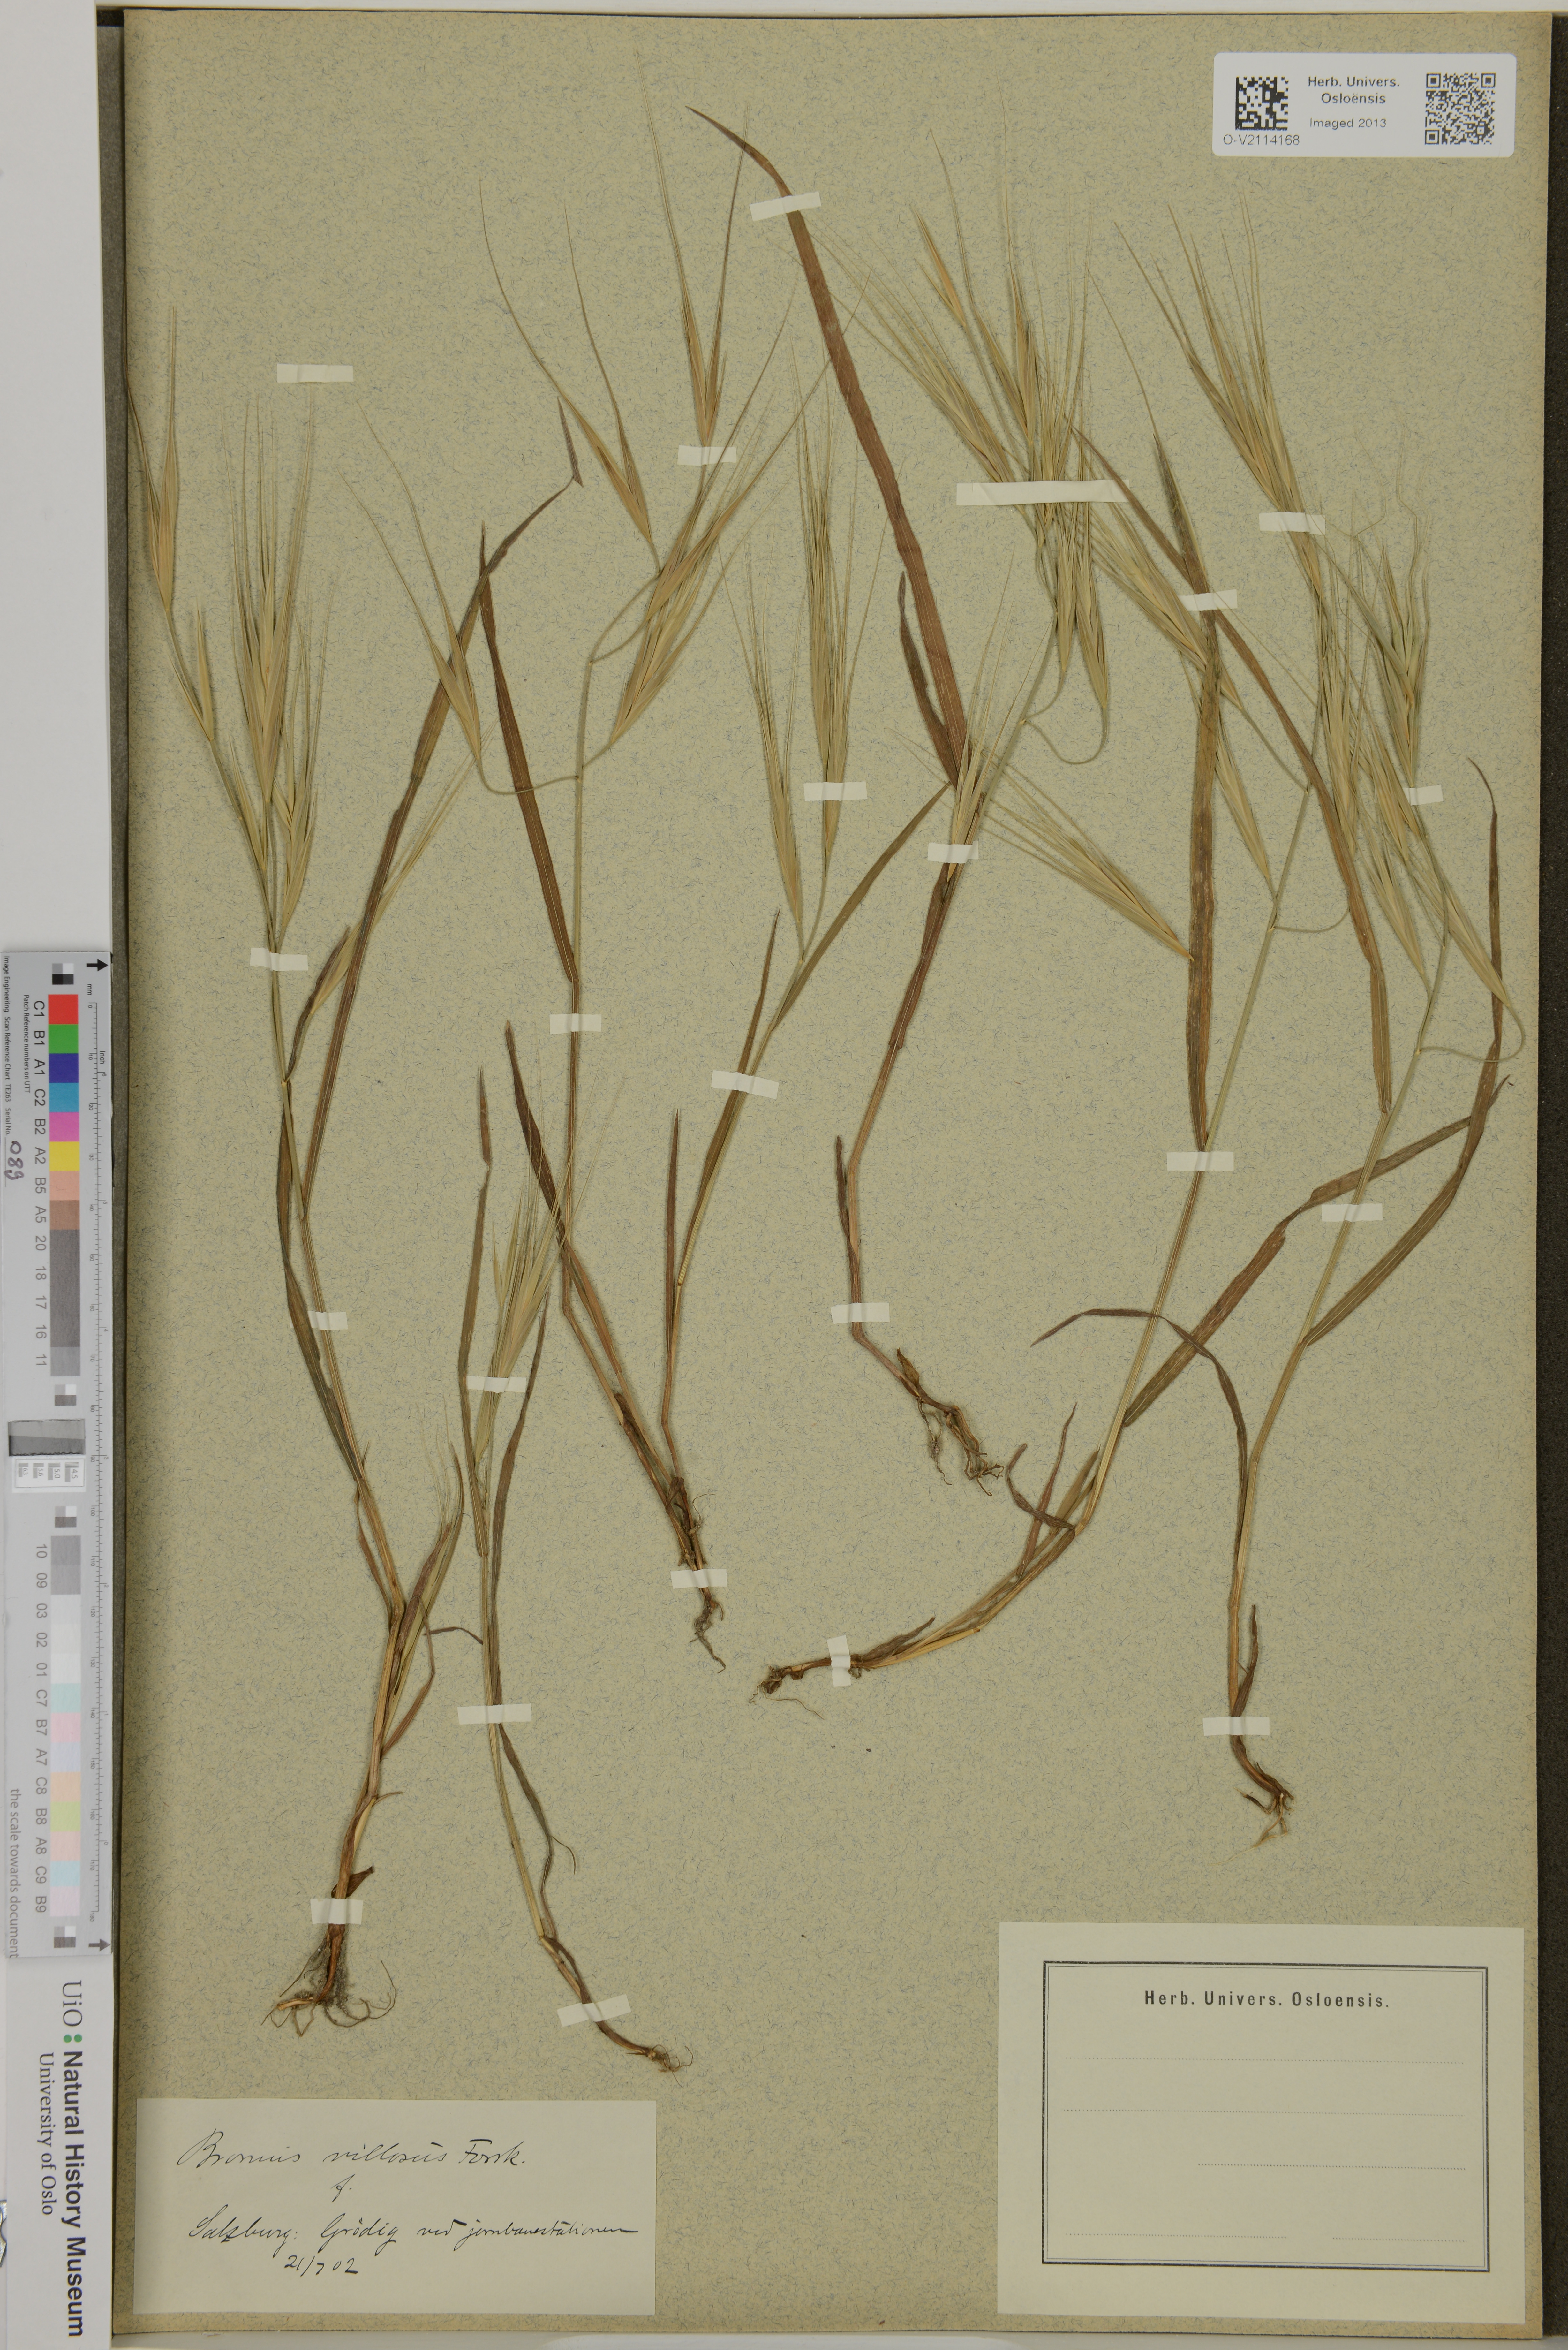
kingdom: Plantae
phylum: Tracheophyta
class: Liliopsida
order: Poales
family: Poaceae
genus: Bromus
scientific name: Bromus diandrus
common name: Ripgut brome
